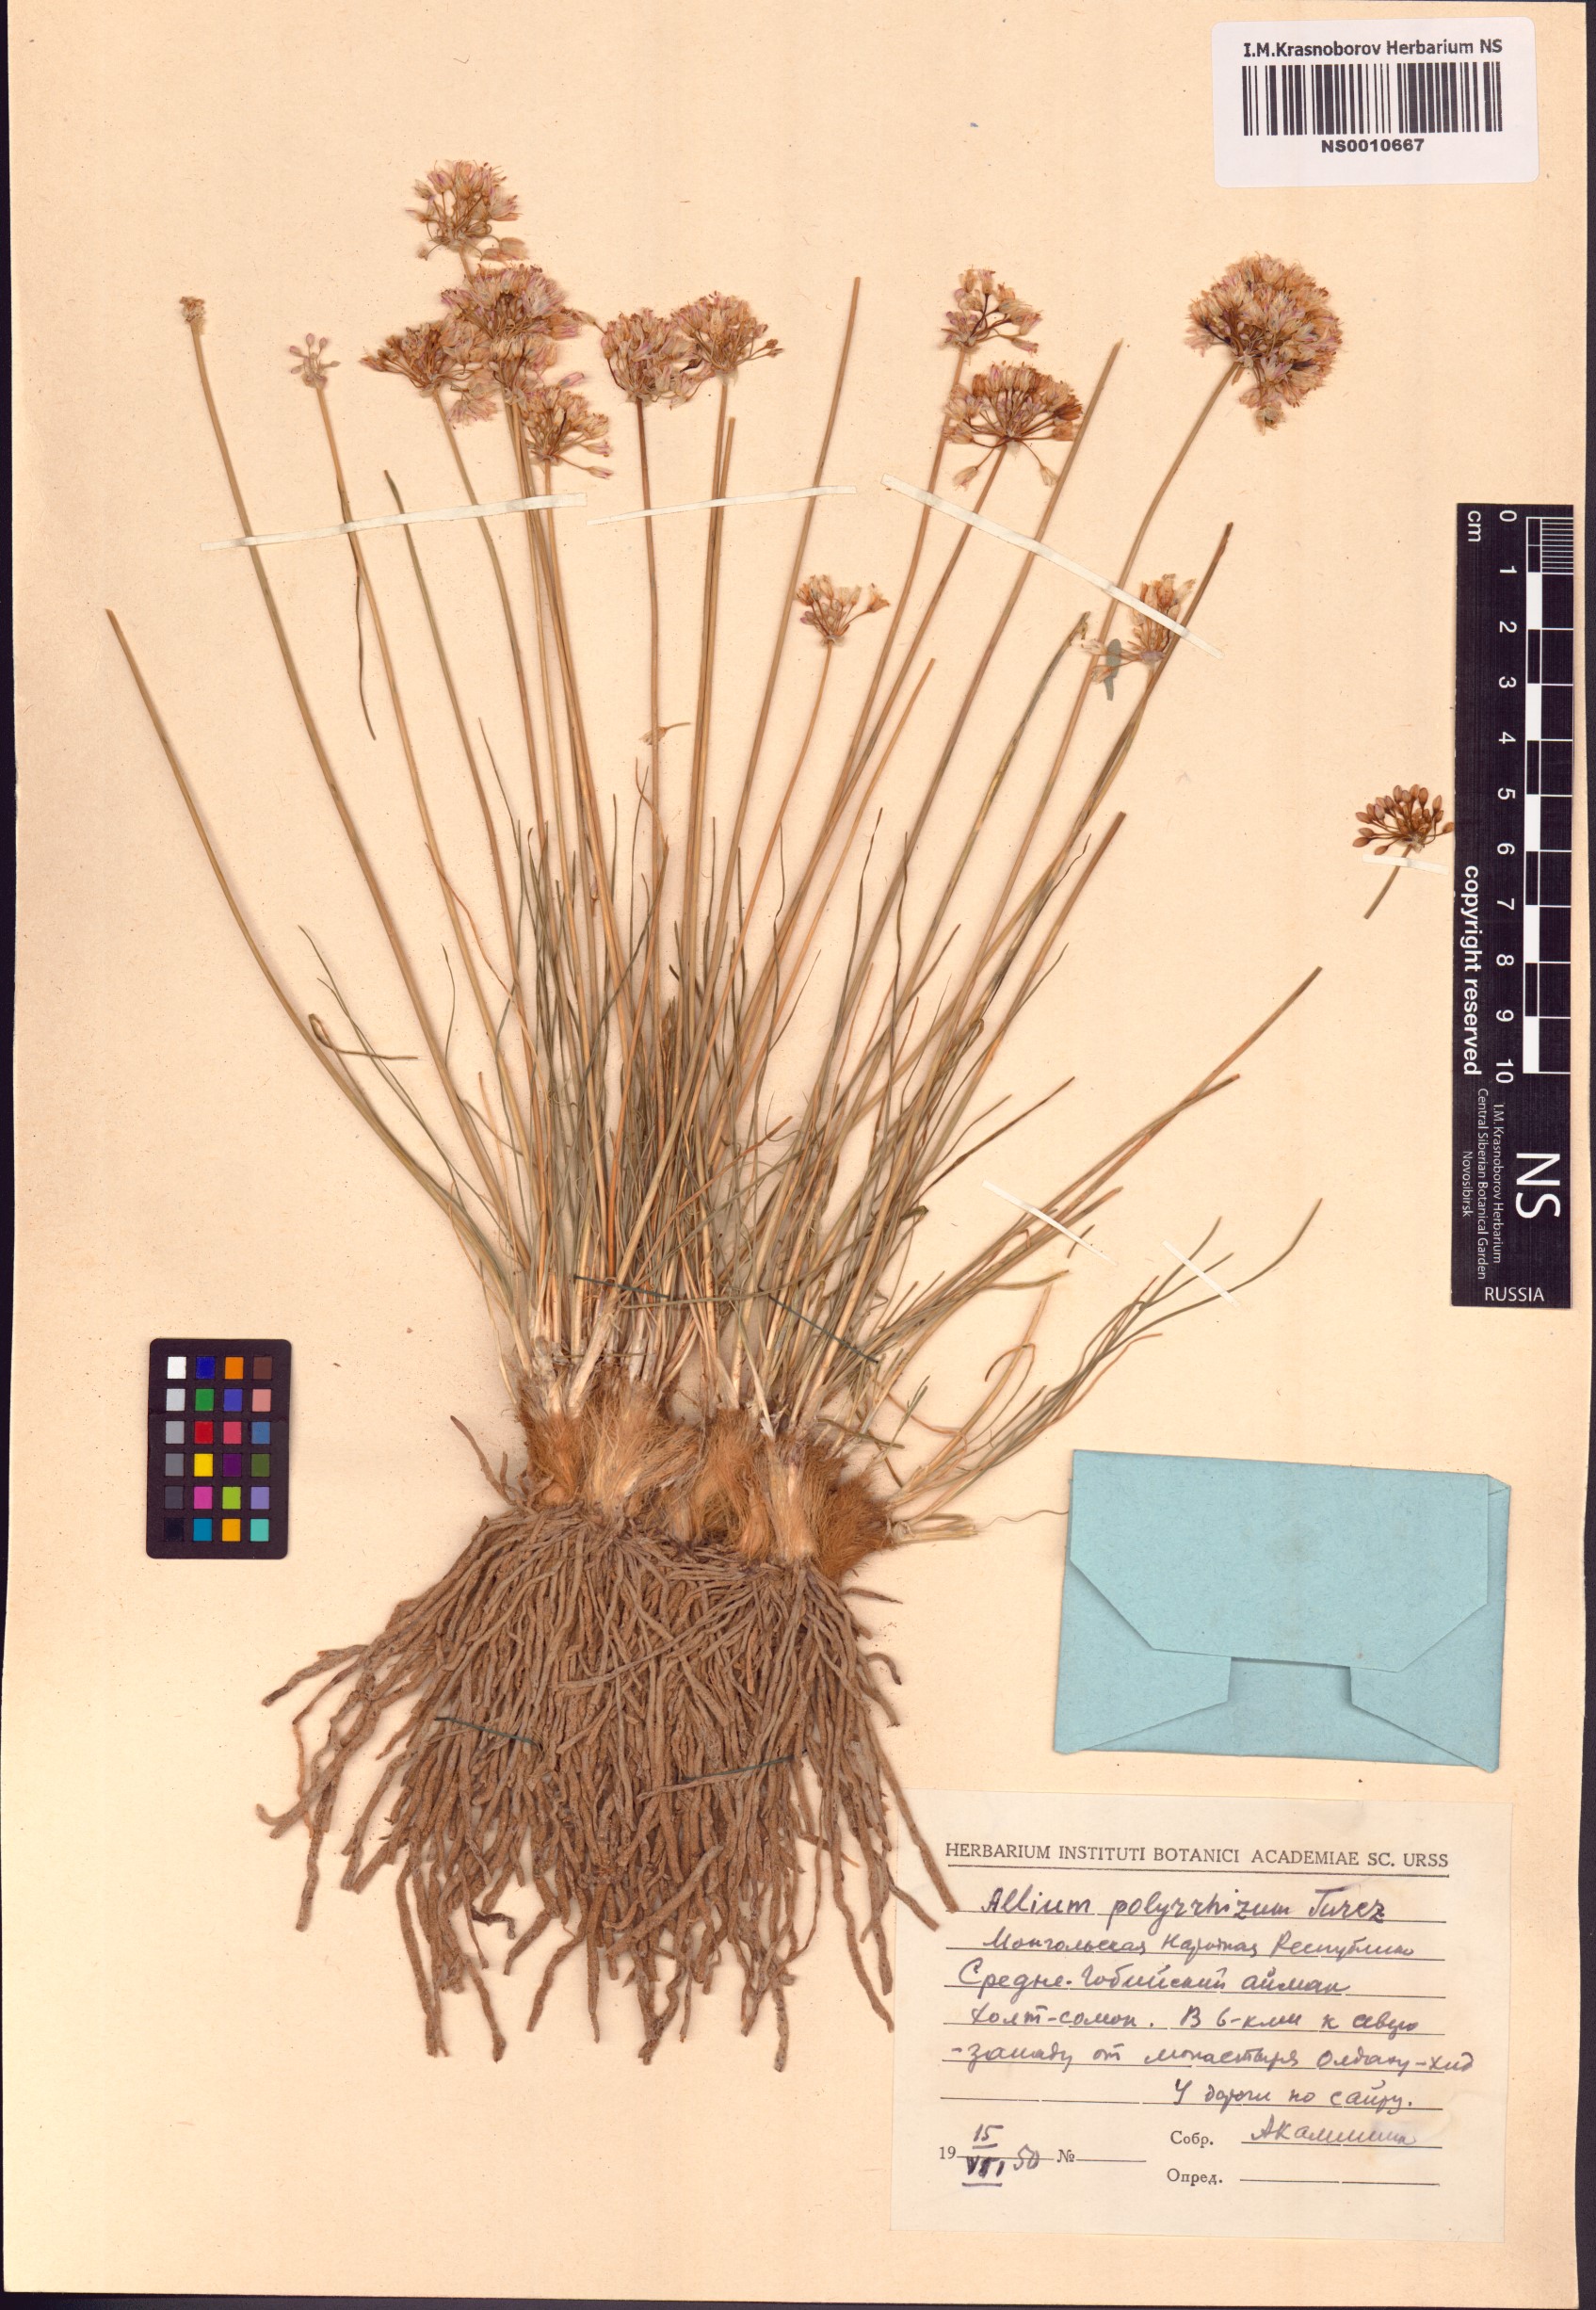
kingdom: Plantae
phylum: Tracheophyta
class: Liliopsida
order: Asparagales
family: Amaryllidaceae
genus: Allium
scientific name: Allium polyrhizum
